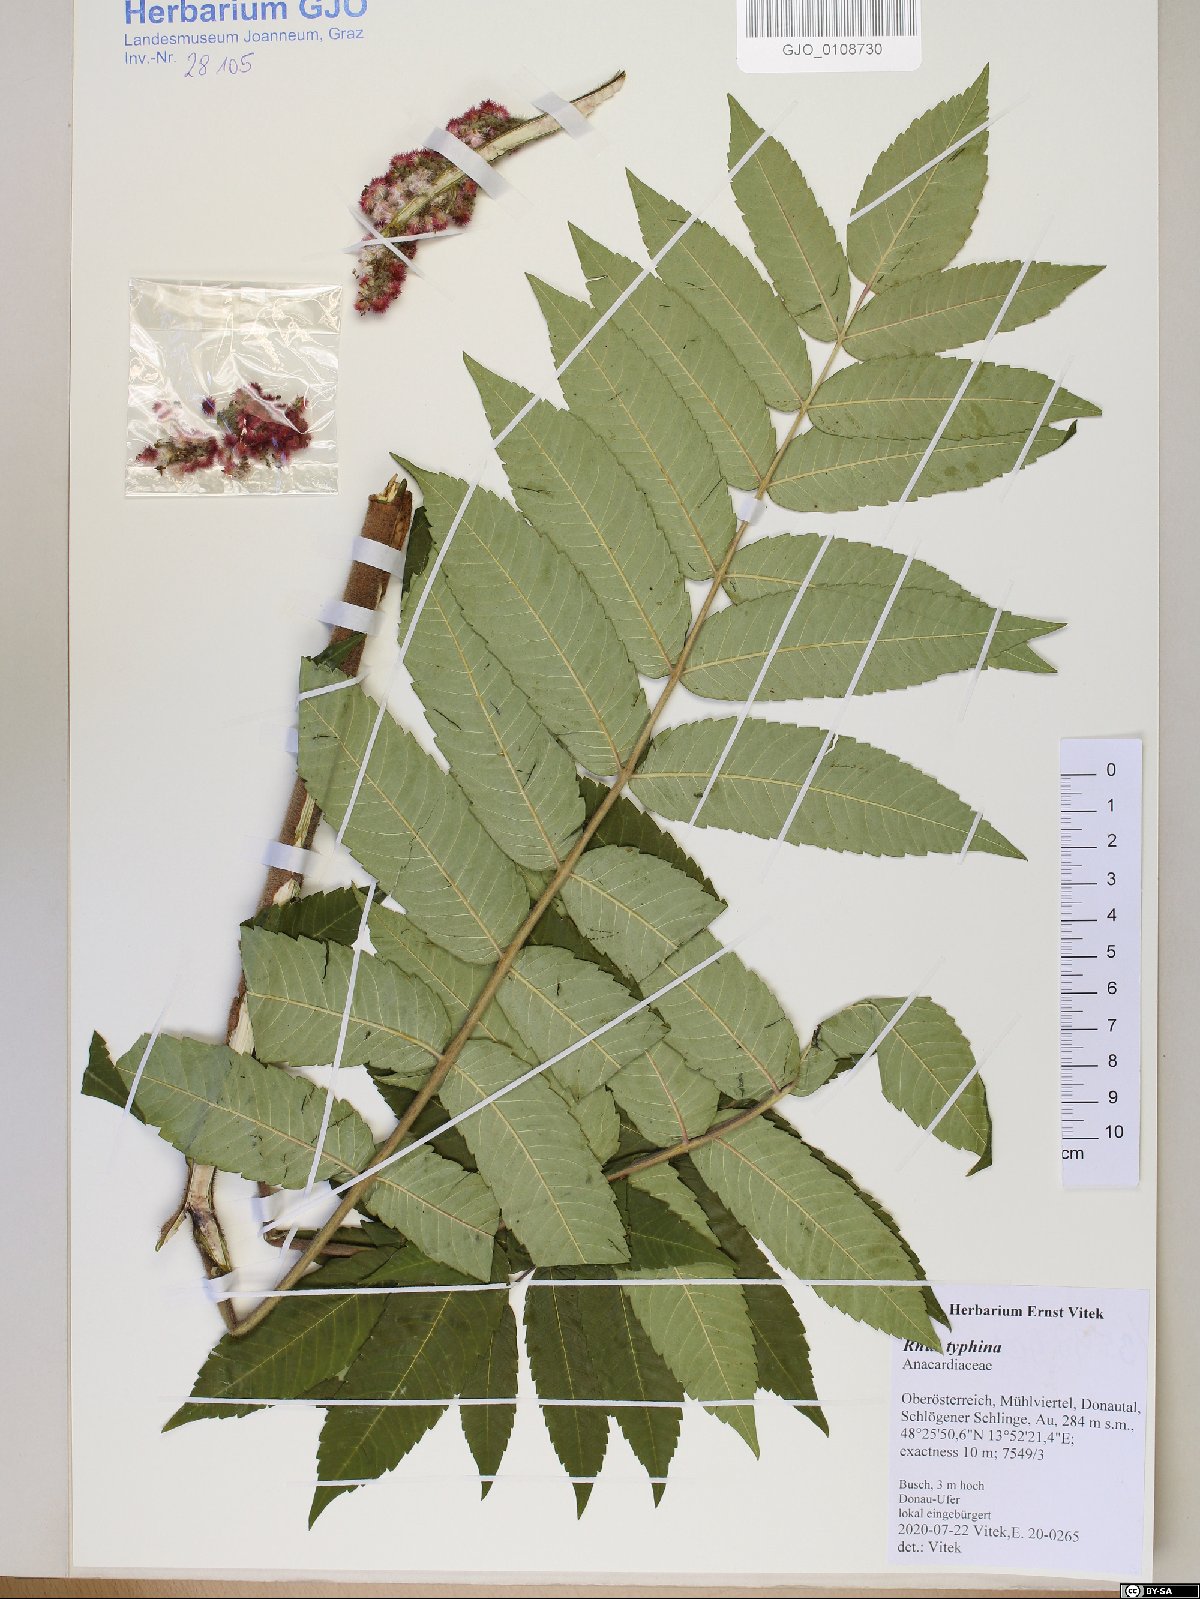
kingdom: Plantae
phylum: Tracheophyta
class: Magnoliopsida
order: Sapindales
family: Anacardiaceae
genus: Rhus
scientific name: Rhus typhina
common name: Staghorn sumac
